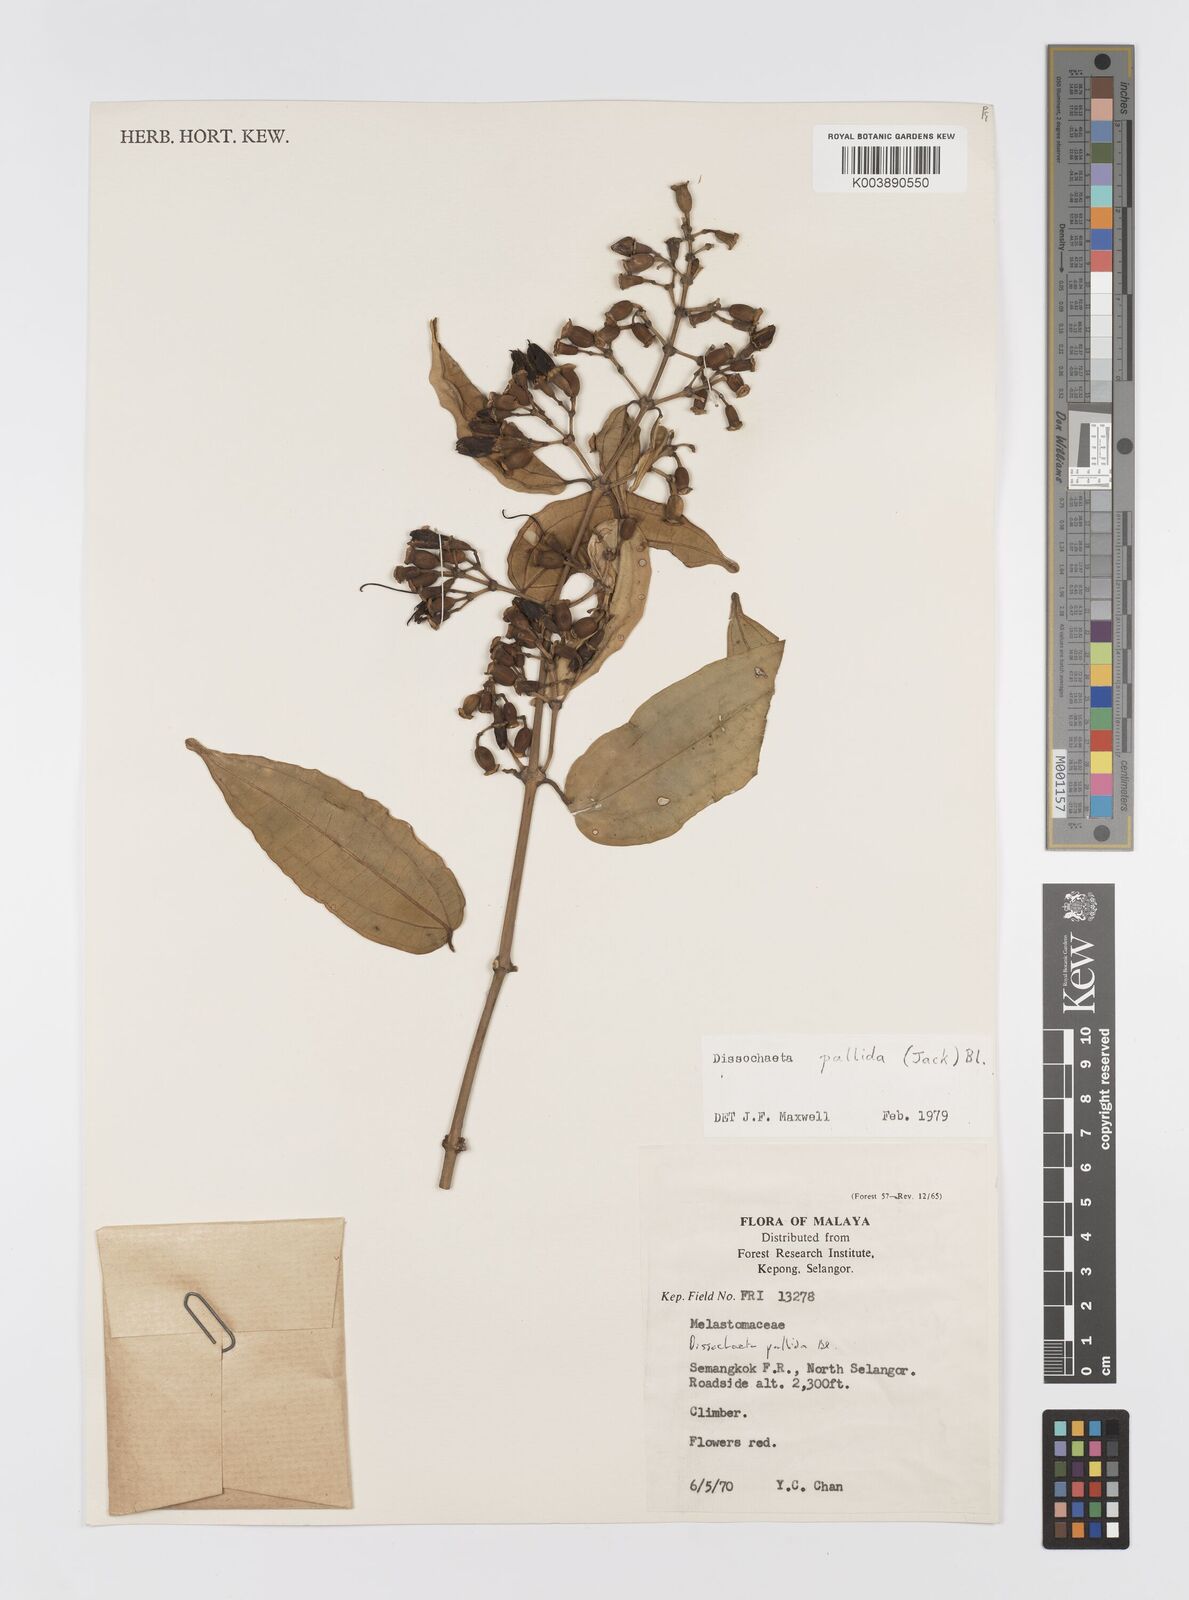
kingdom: Plantae
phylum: Tracheophyta
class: Magnoliopsida
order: Myrtales
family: Melastomataceae
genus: Dissochaeta
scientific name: Dissochaeta pallida
